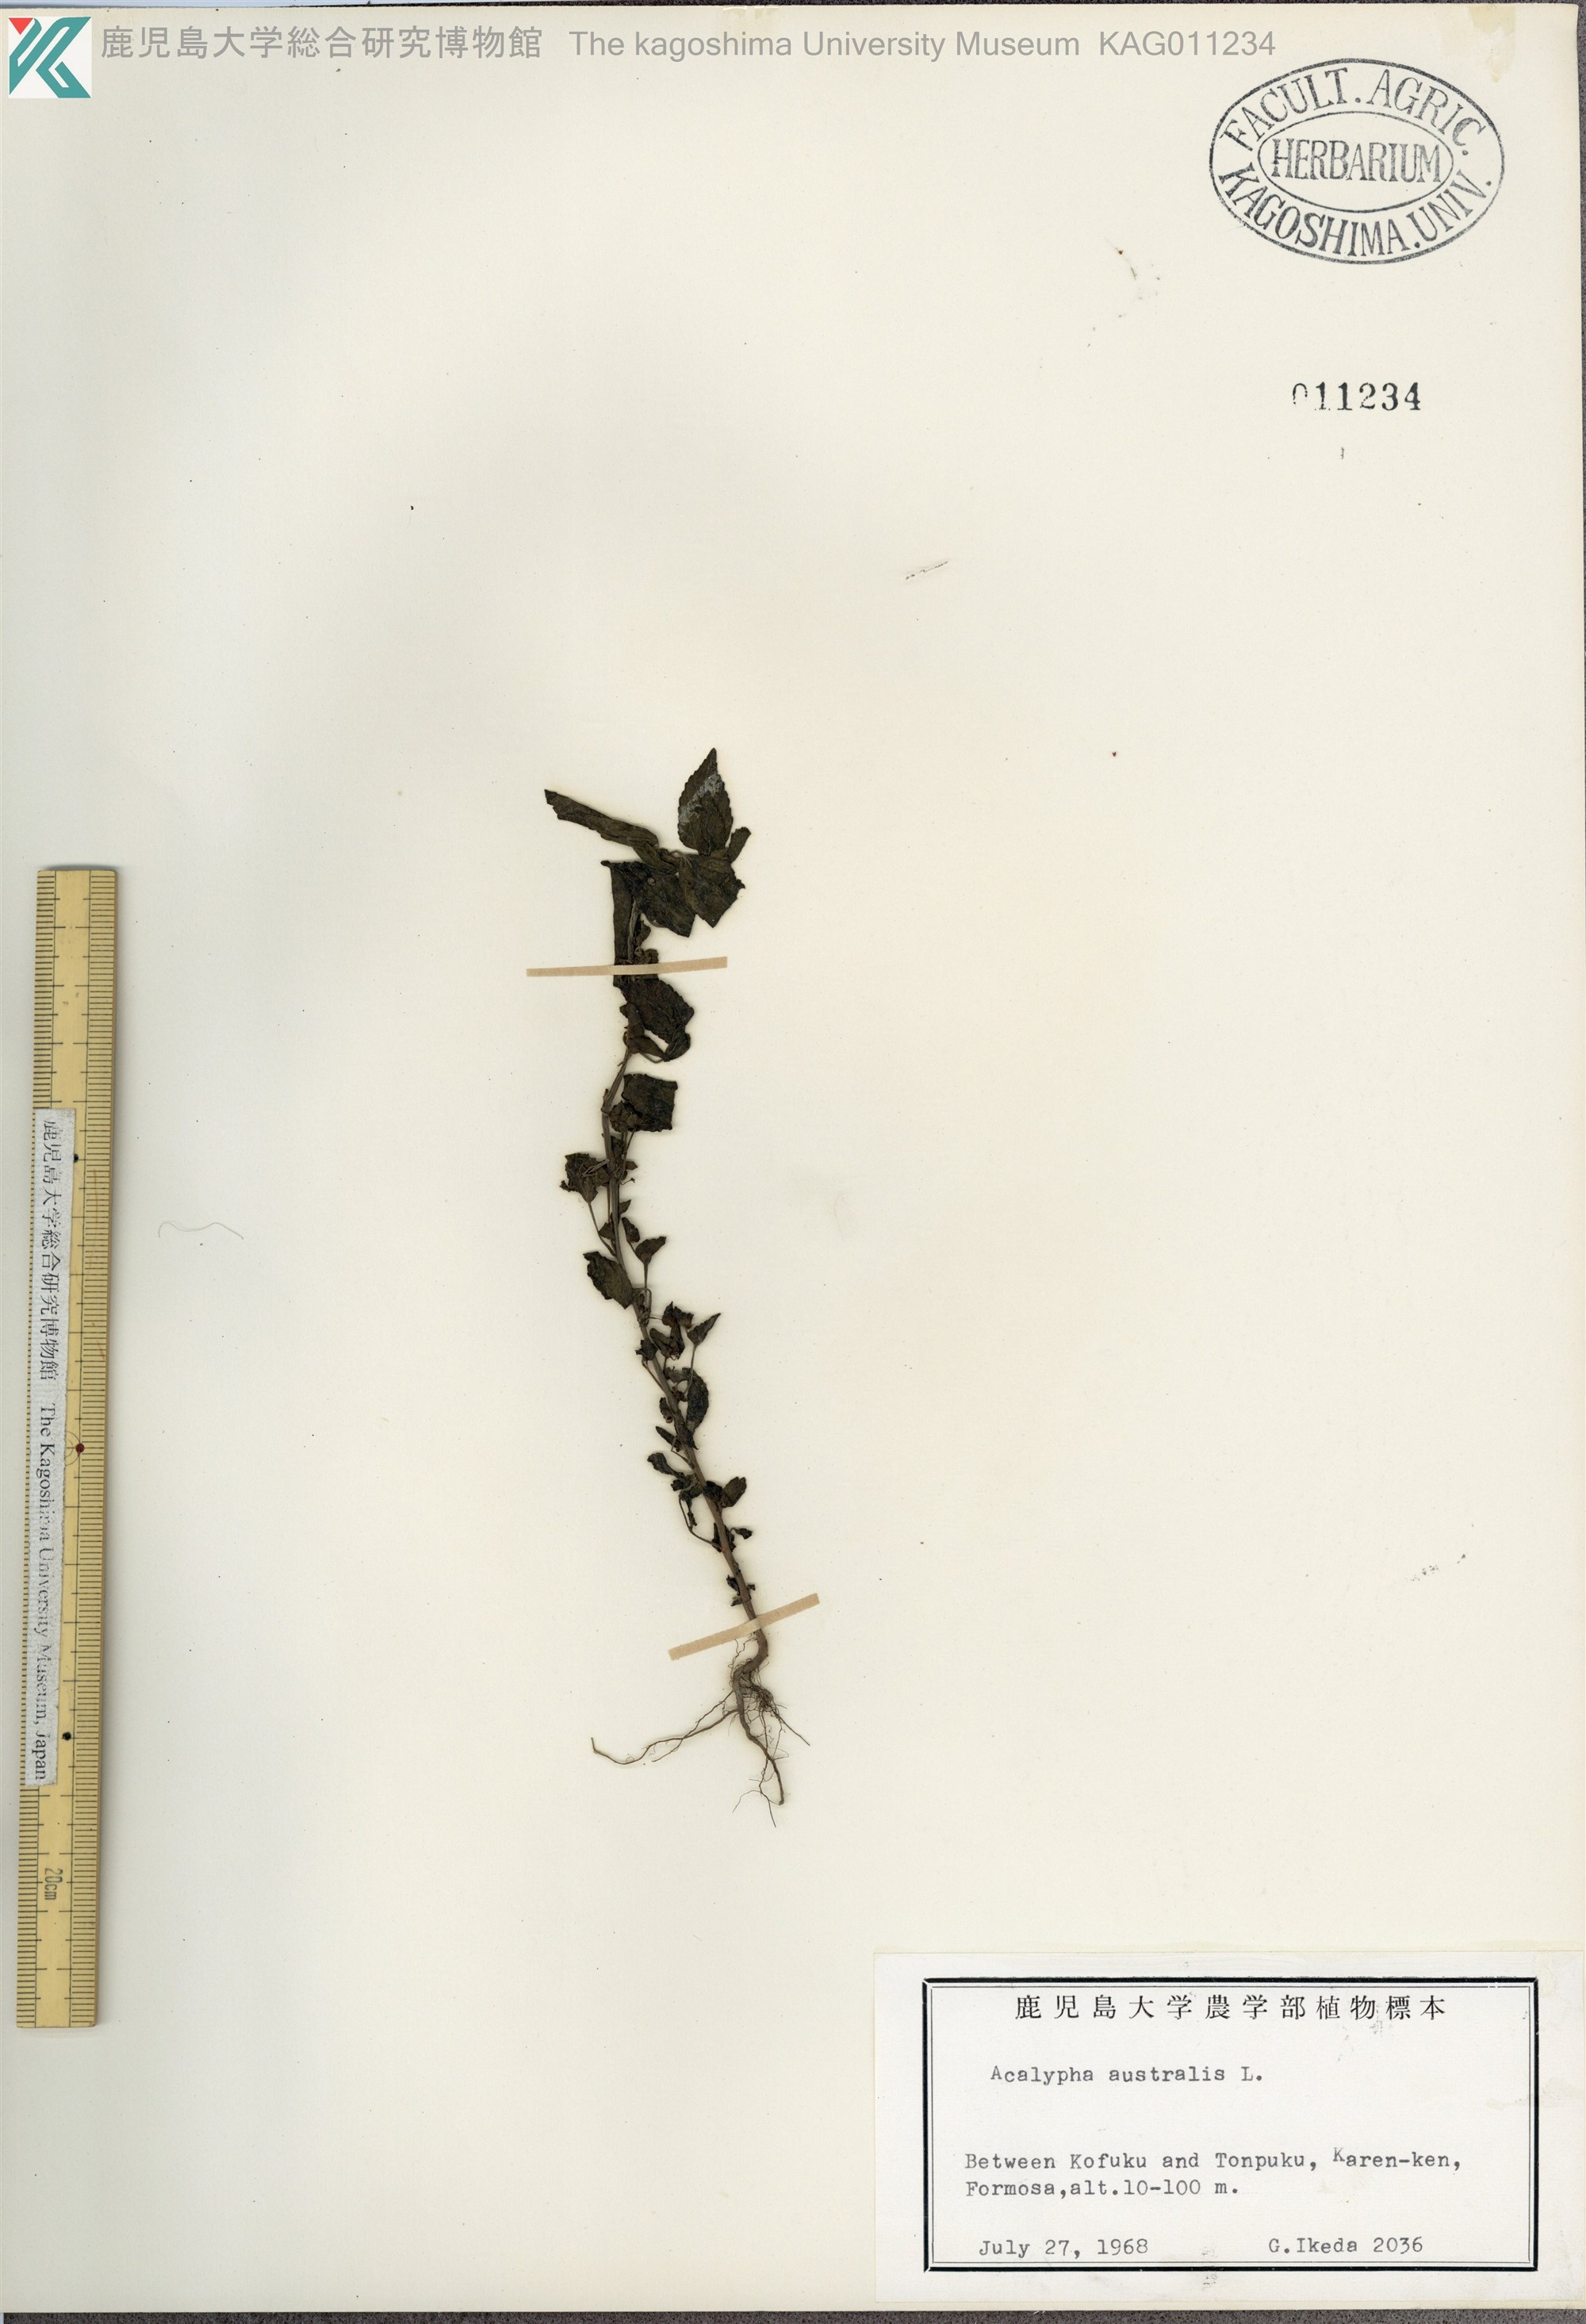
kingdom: Plantae
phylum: Tracheophyta
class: Magnoliopsida
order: Malpighiales
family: Euphorbiaceae
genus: Acalypha
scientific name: Acalypha australis
